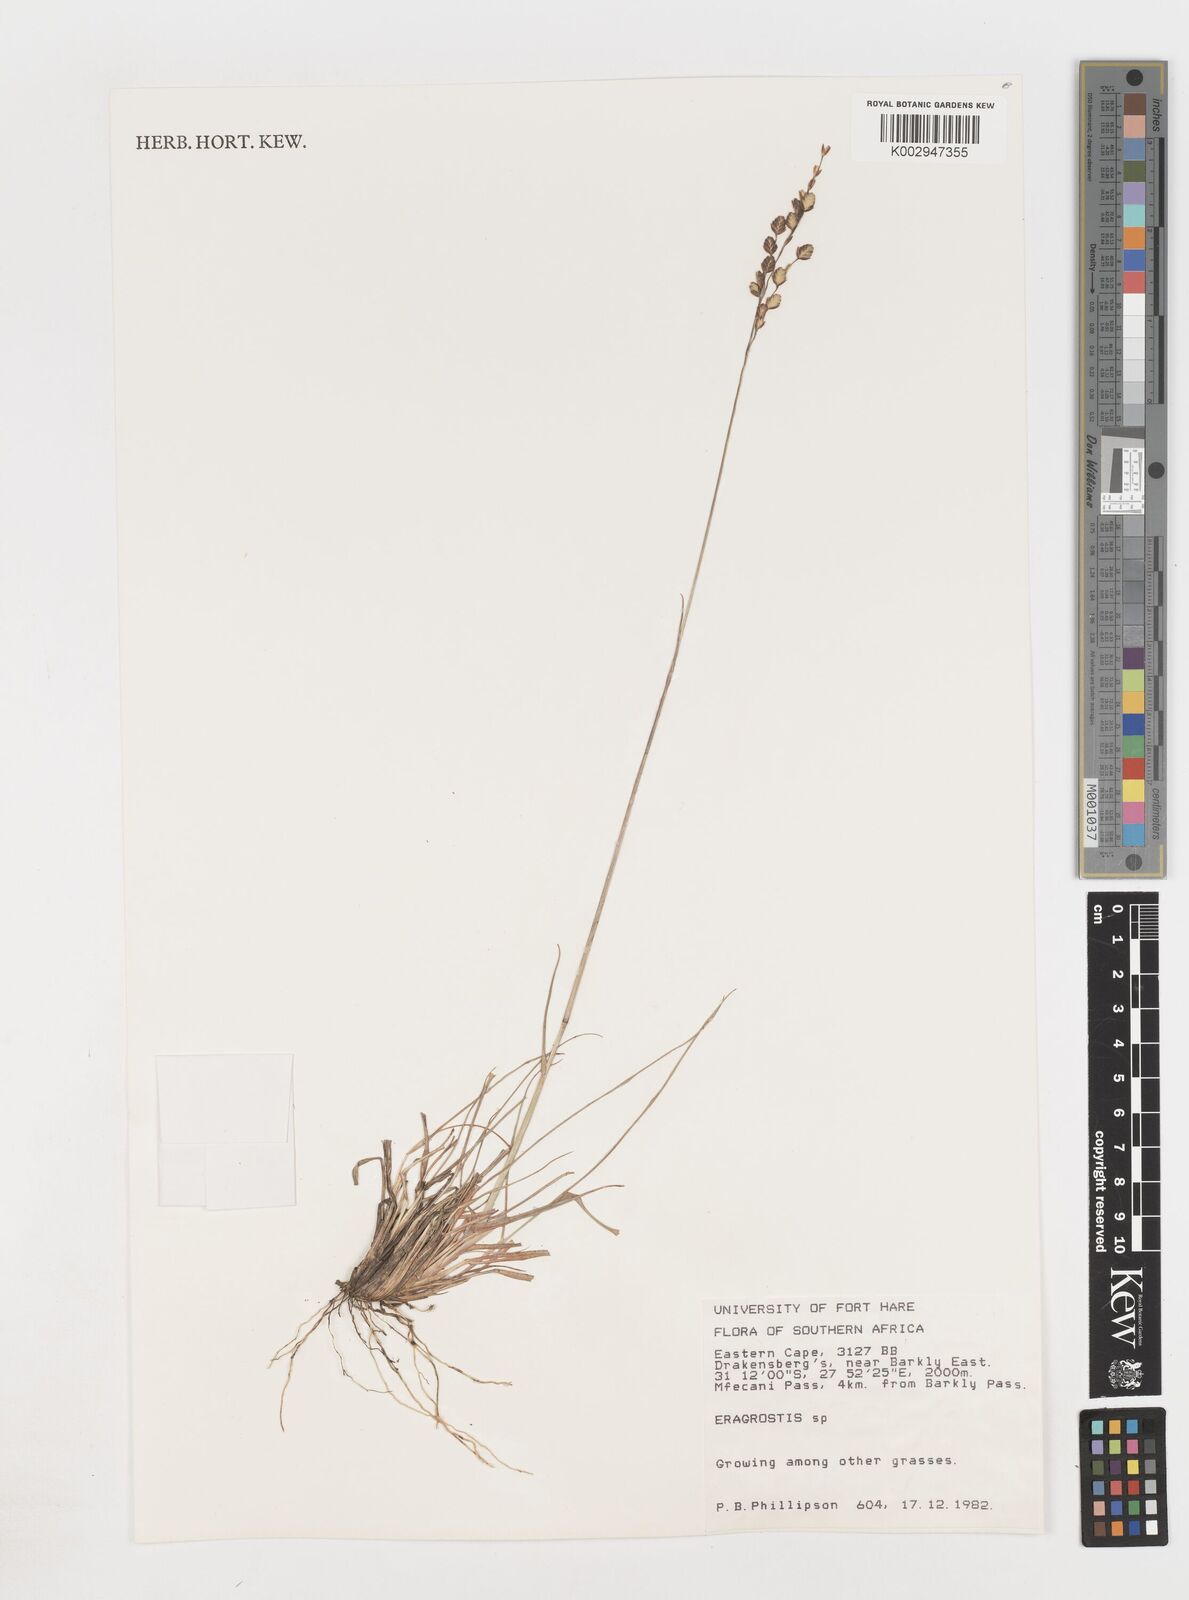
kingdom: Plantae
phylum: Tracheophyta
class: Liliopsida
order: Poales
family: Poaceae
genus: Eragrostis
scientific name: Eragrostis
